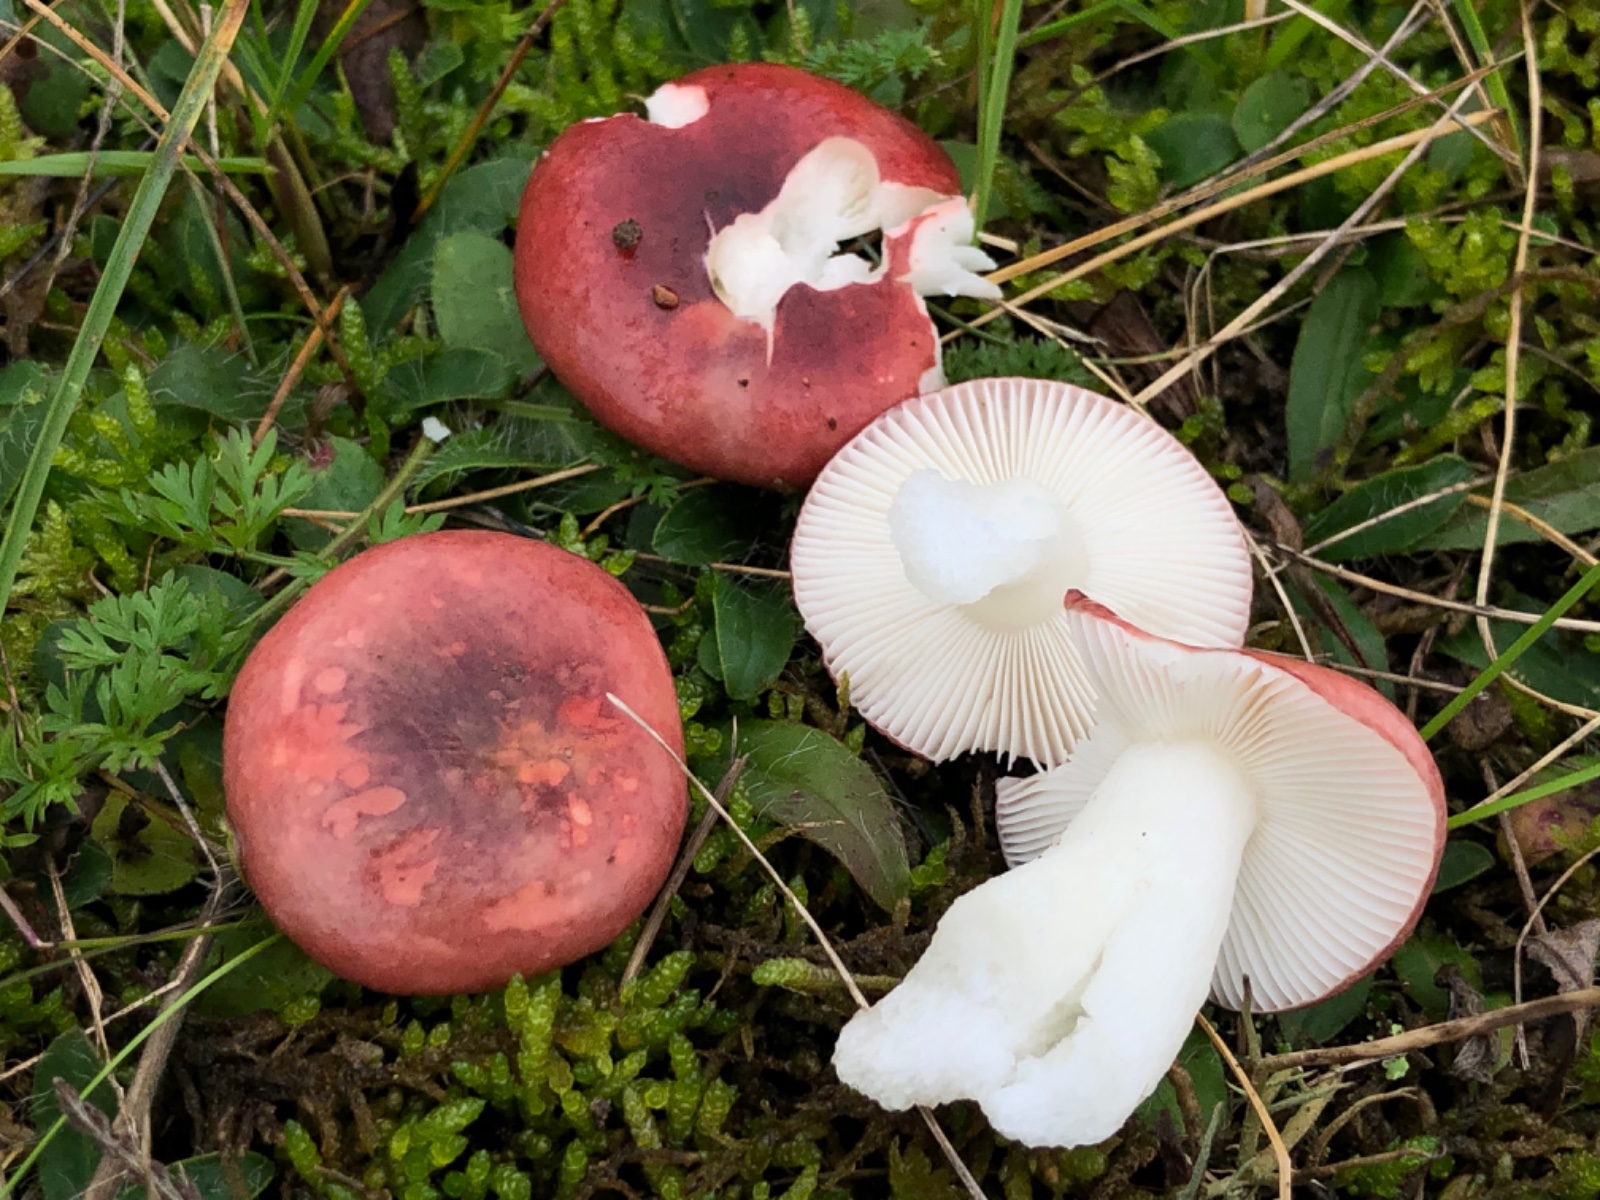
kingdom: Fungi
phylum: Basidiomycota
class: Agaricomycetes
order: Russulales
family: Russulaceae
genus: Russula
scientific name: Russula laccata
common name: klit-skørhat
